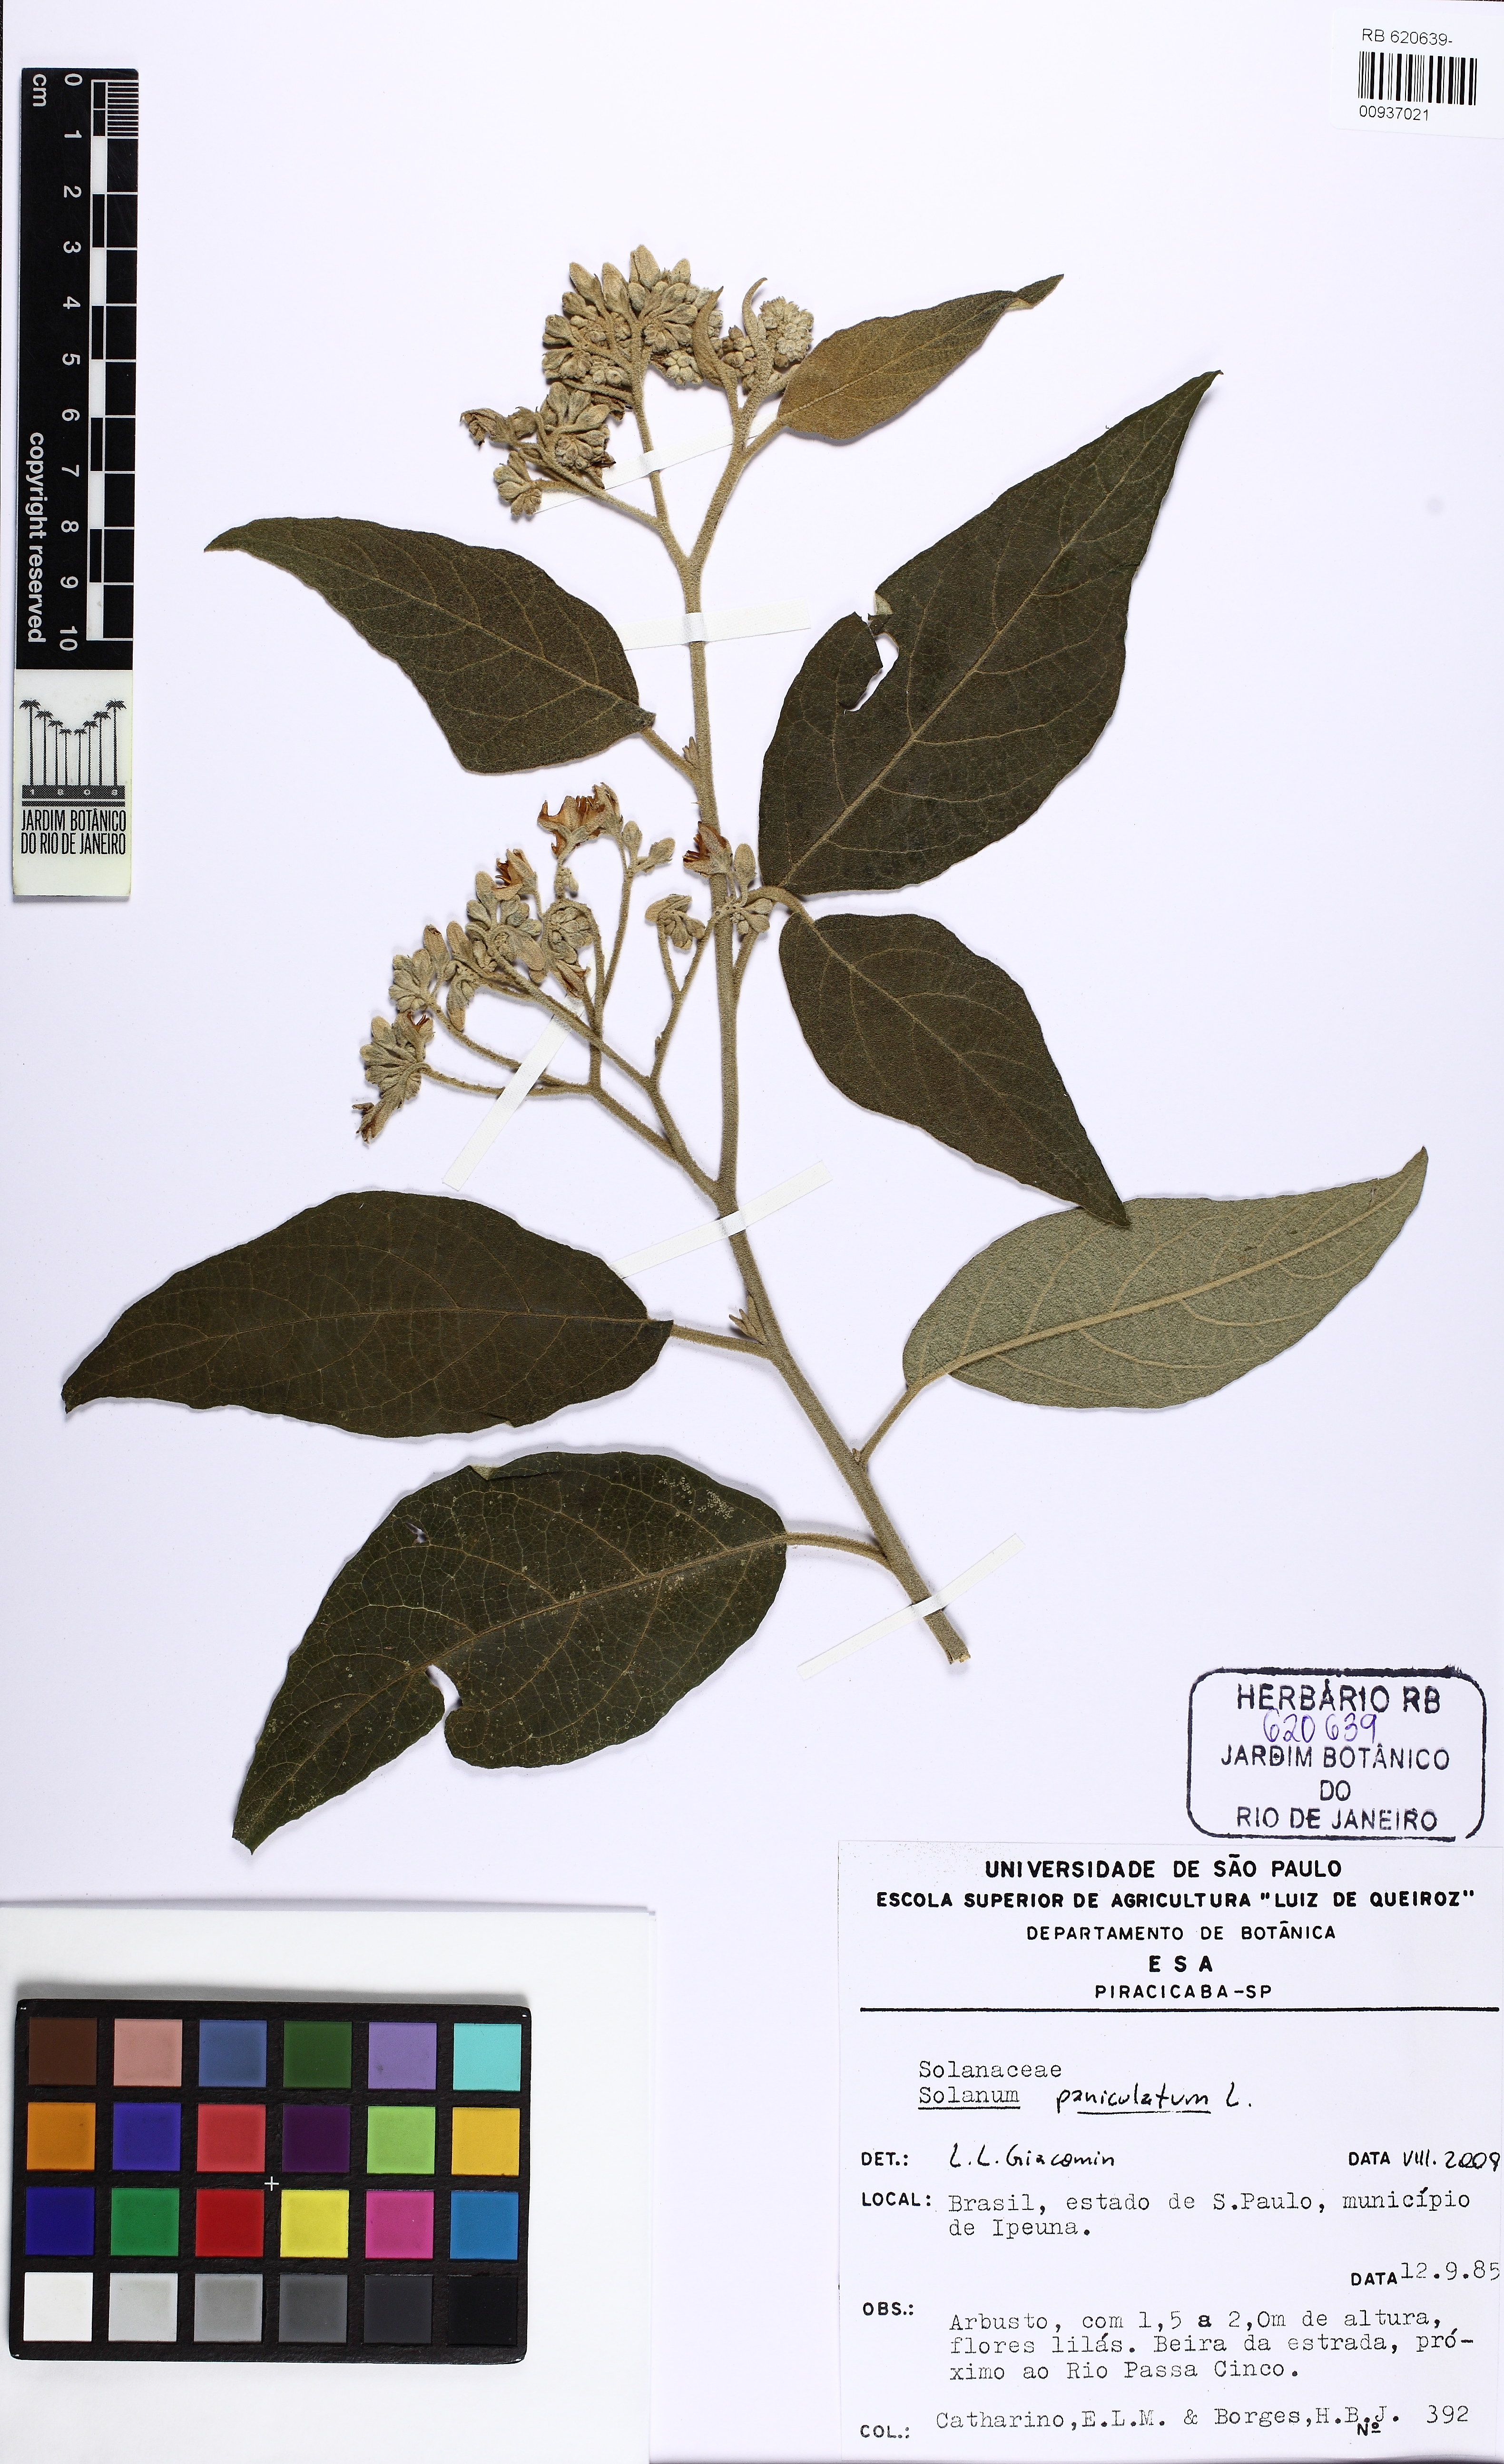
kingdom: Plantae
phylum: Tracheophyta
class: Magnoliopsida
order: Solanales
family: Solanaceae
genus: Solanum
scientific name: Solanum paniculatum
